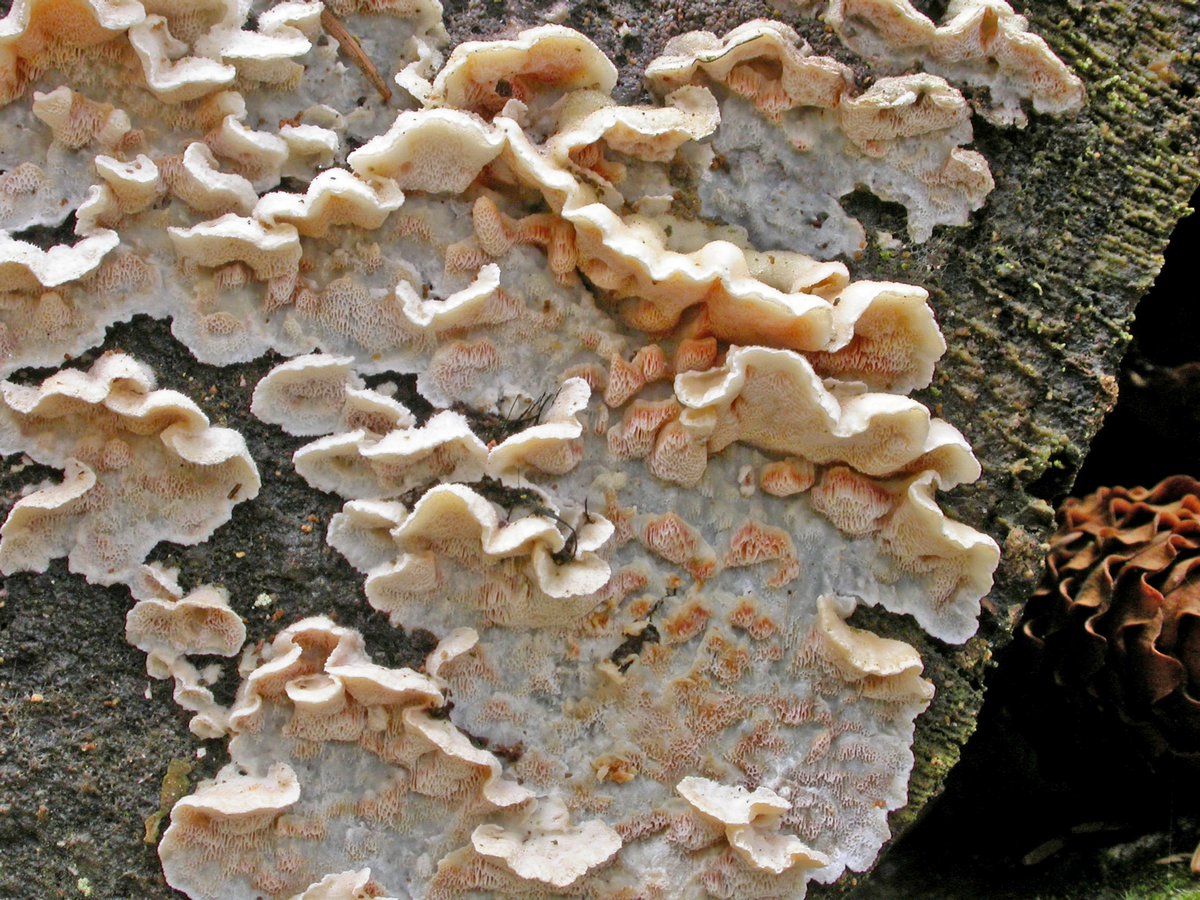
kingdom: Fungi
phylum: Basidiomycota
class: Agaricomycetes
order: Polyporales
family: Incrustoporiaceae
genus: Skeletocutis
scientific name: Skeletocutis amorpha
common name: orange krystalporesvamp
